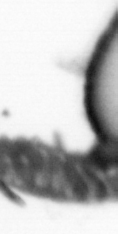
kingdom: Animalia
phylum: Annelida
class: Polychaeta
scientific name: Polychaeta
